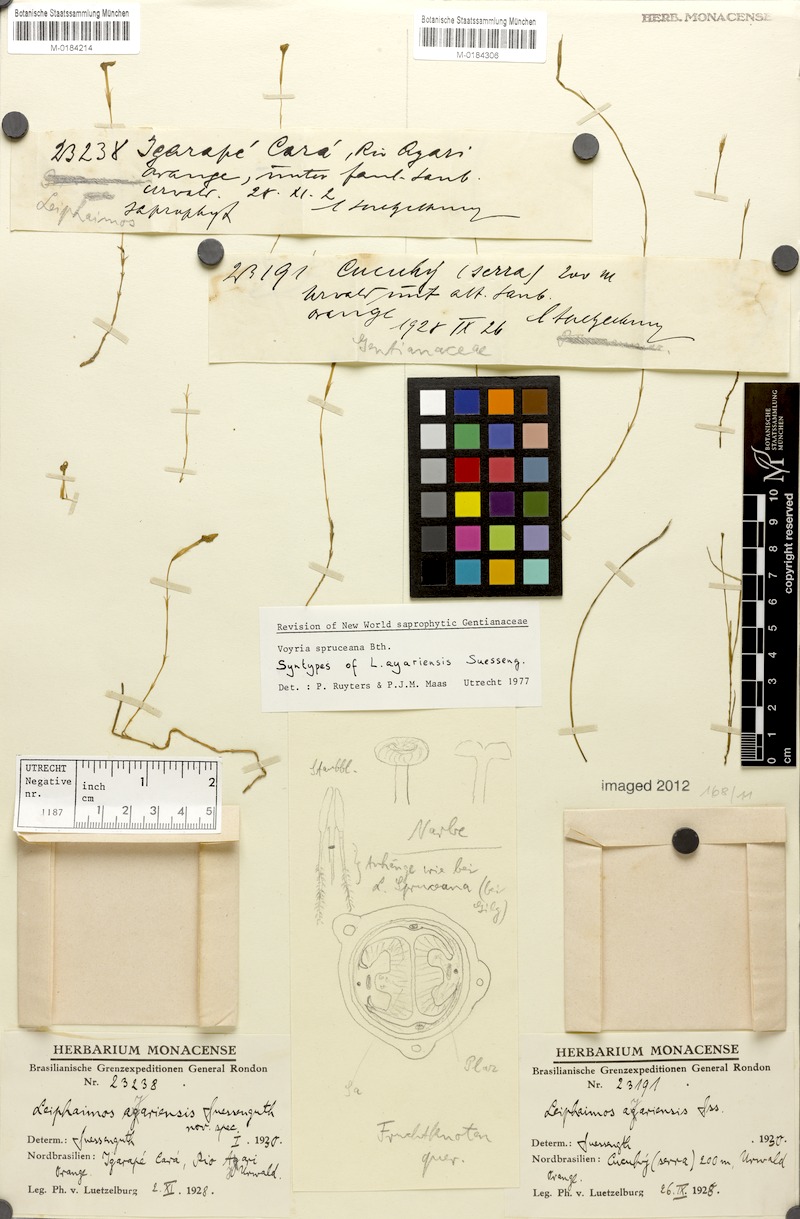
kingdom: Plantae
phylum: Tracheophyta
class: Magnoliopsida
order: Gentianales
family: Gentianaceae
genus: Voyria
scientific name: Voyria spruceana
